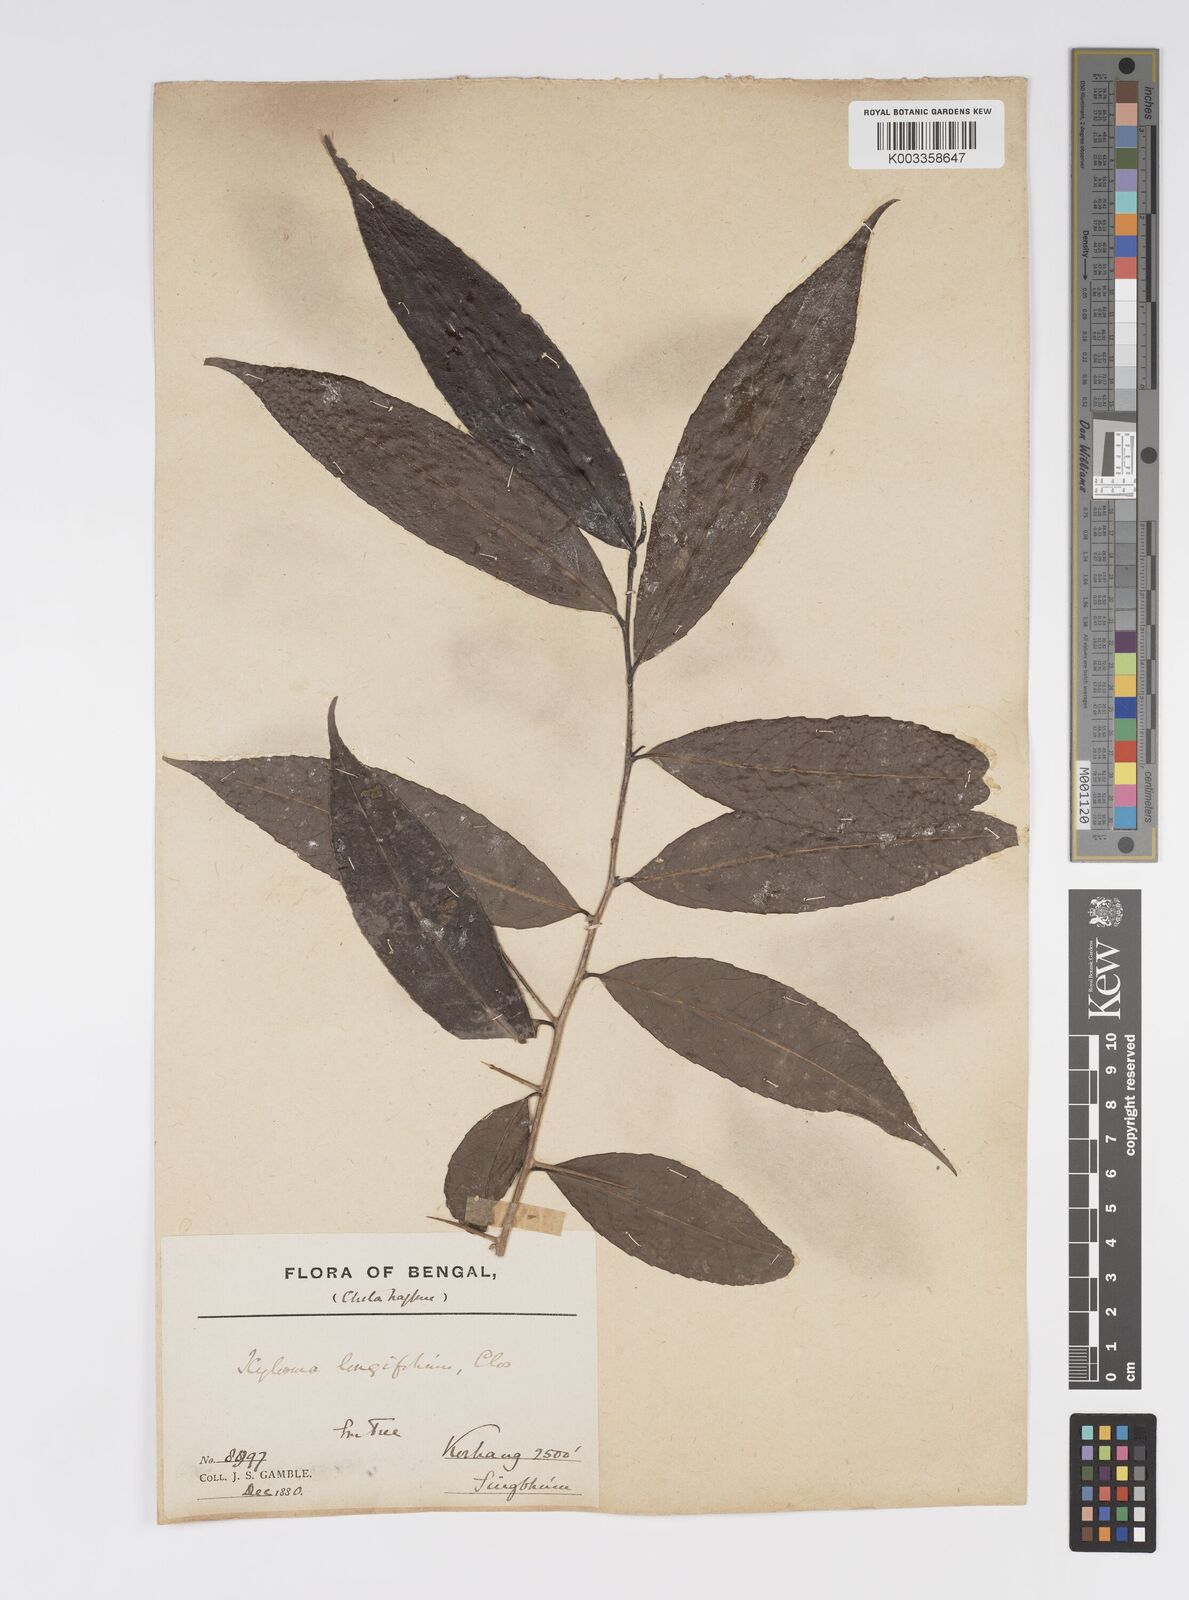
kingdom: Plantae
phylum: Tracheophyta
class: Magnoliopsida
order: Malpighiales
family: Salicaceae
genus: Xylosma
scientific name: Xylosma longifolia
